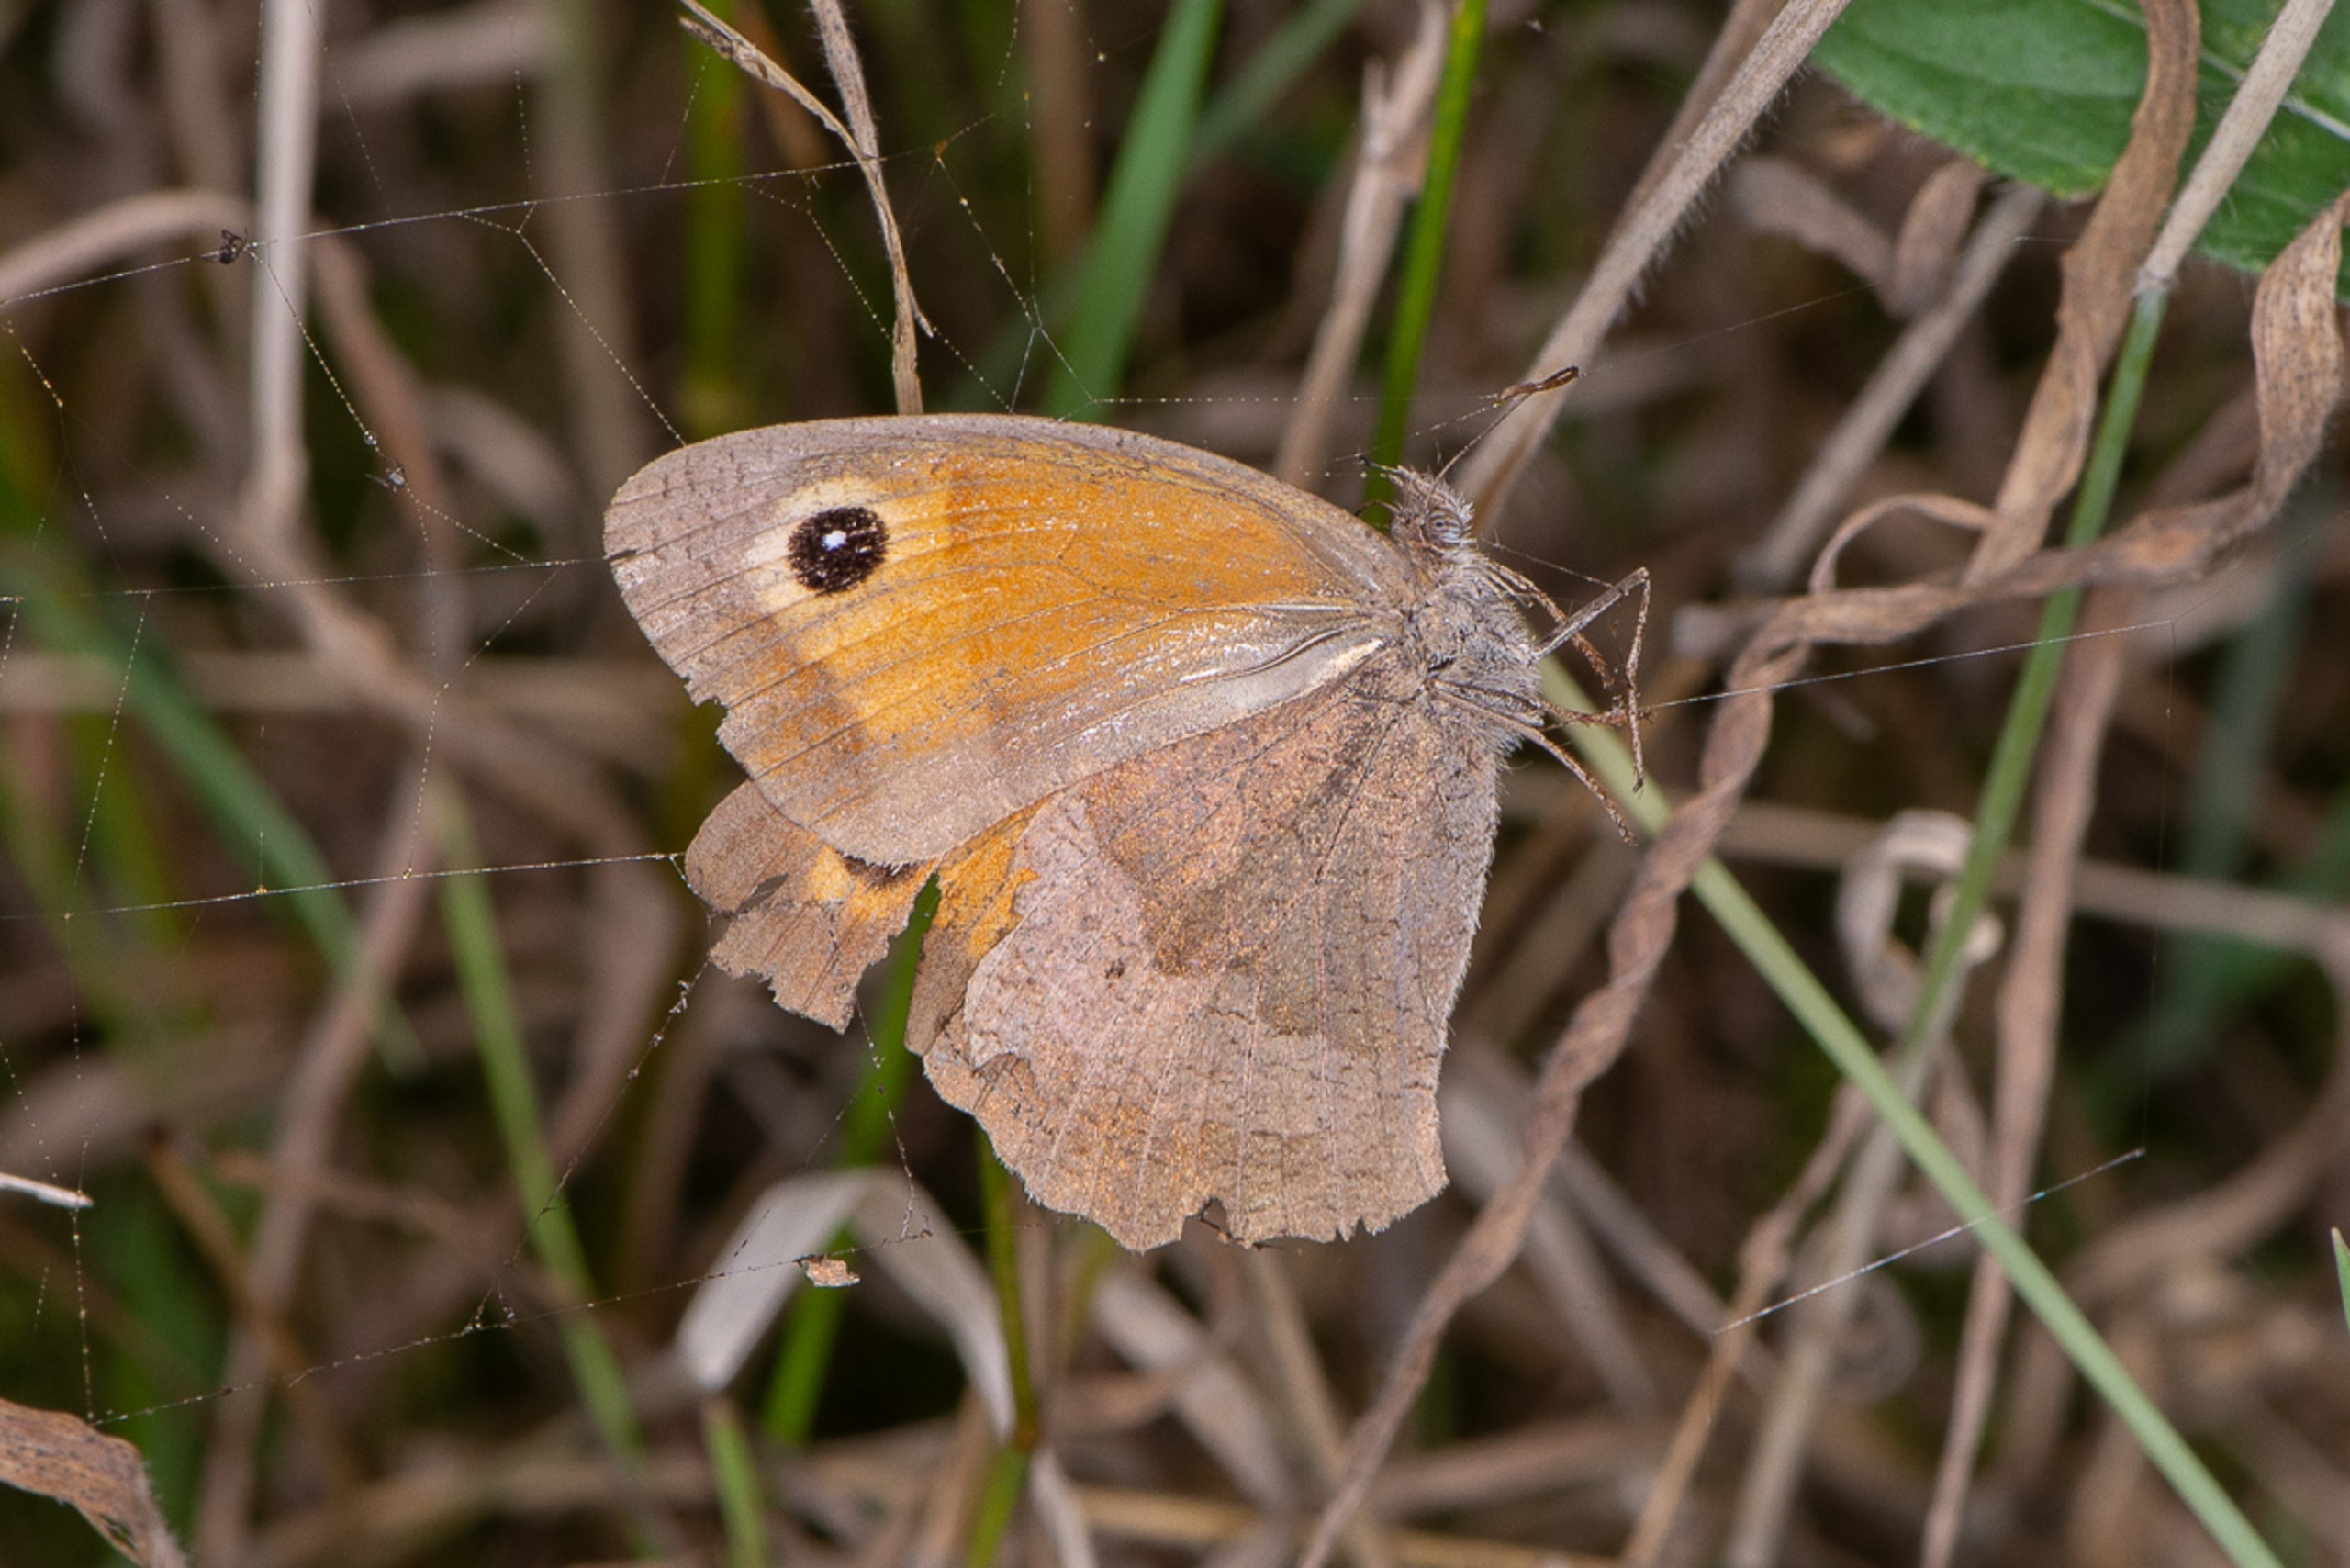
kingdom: Animalia
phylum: Arthropoda
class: Insecta
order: Lepidoptera
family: Nymphalidae
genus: Maniola
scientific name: Maniola jurtina
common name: Græsrandøje
